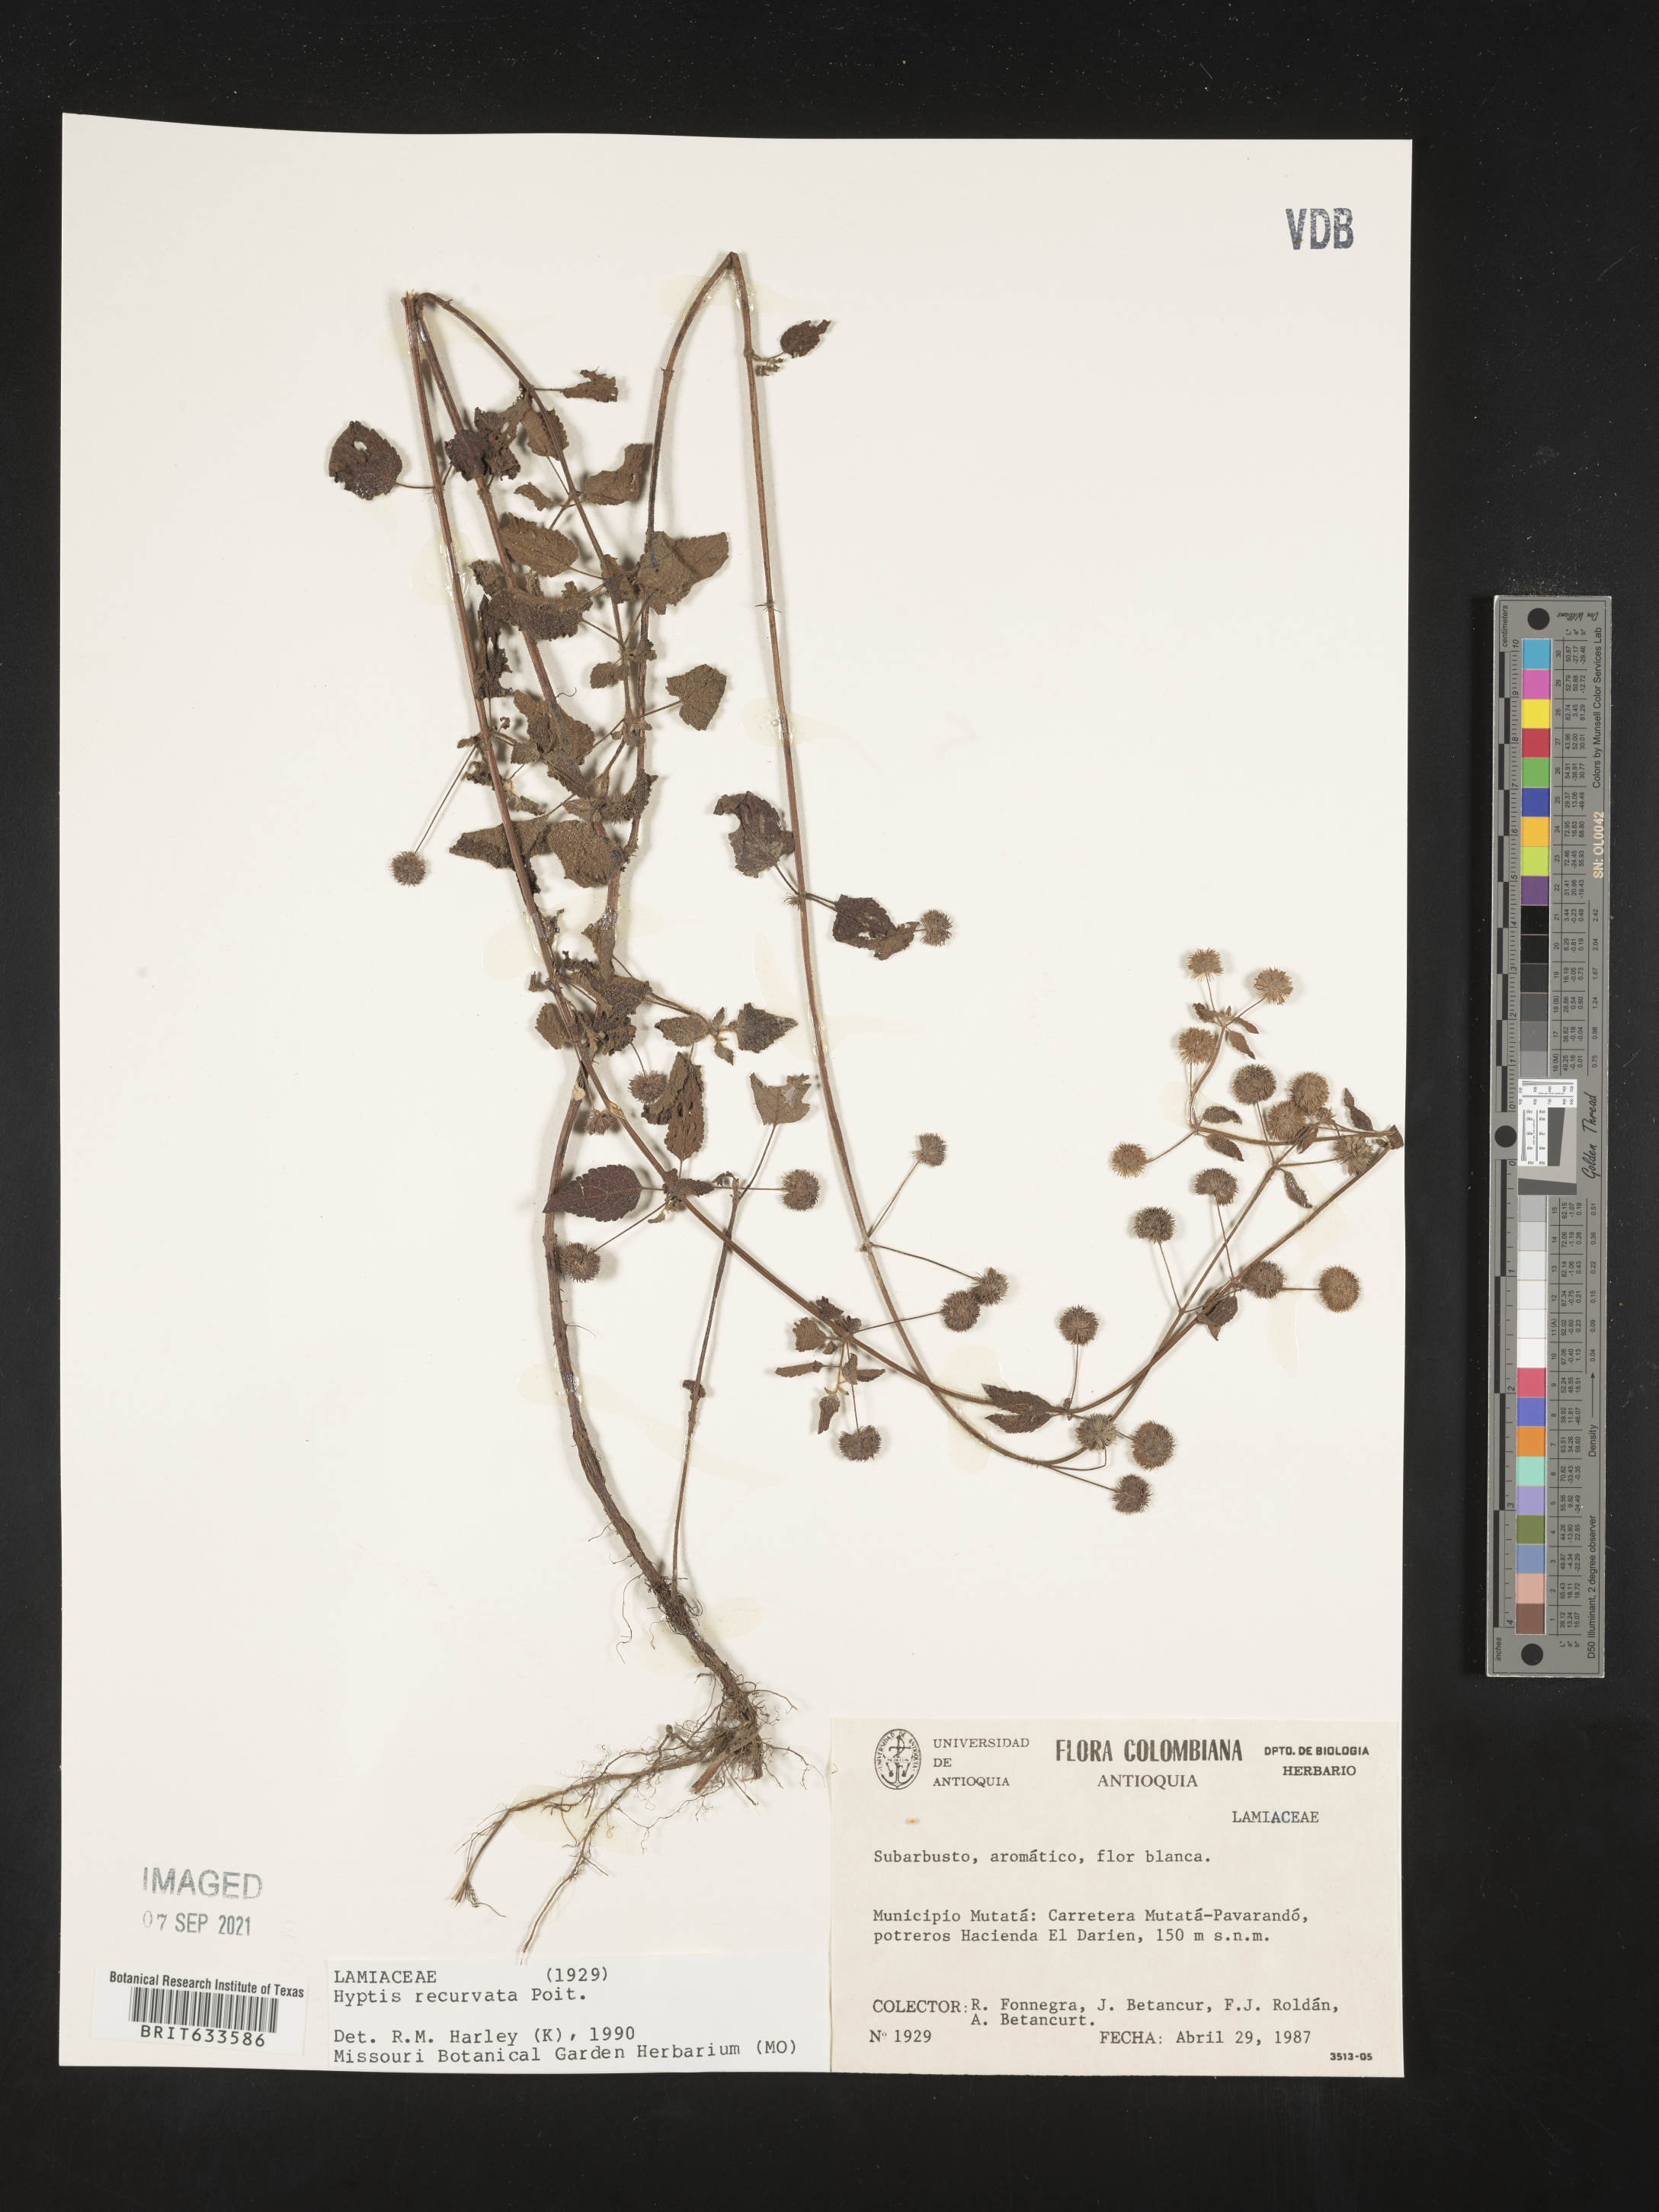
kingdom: Plantae
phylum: Tracheophyta
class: Magnoliopsida
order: Lamiales
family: Lamiaceae
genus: Hyptis
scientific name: Hyptis
